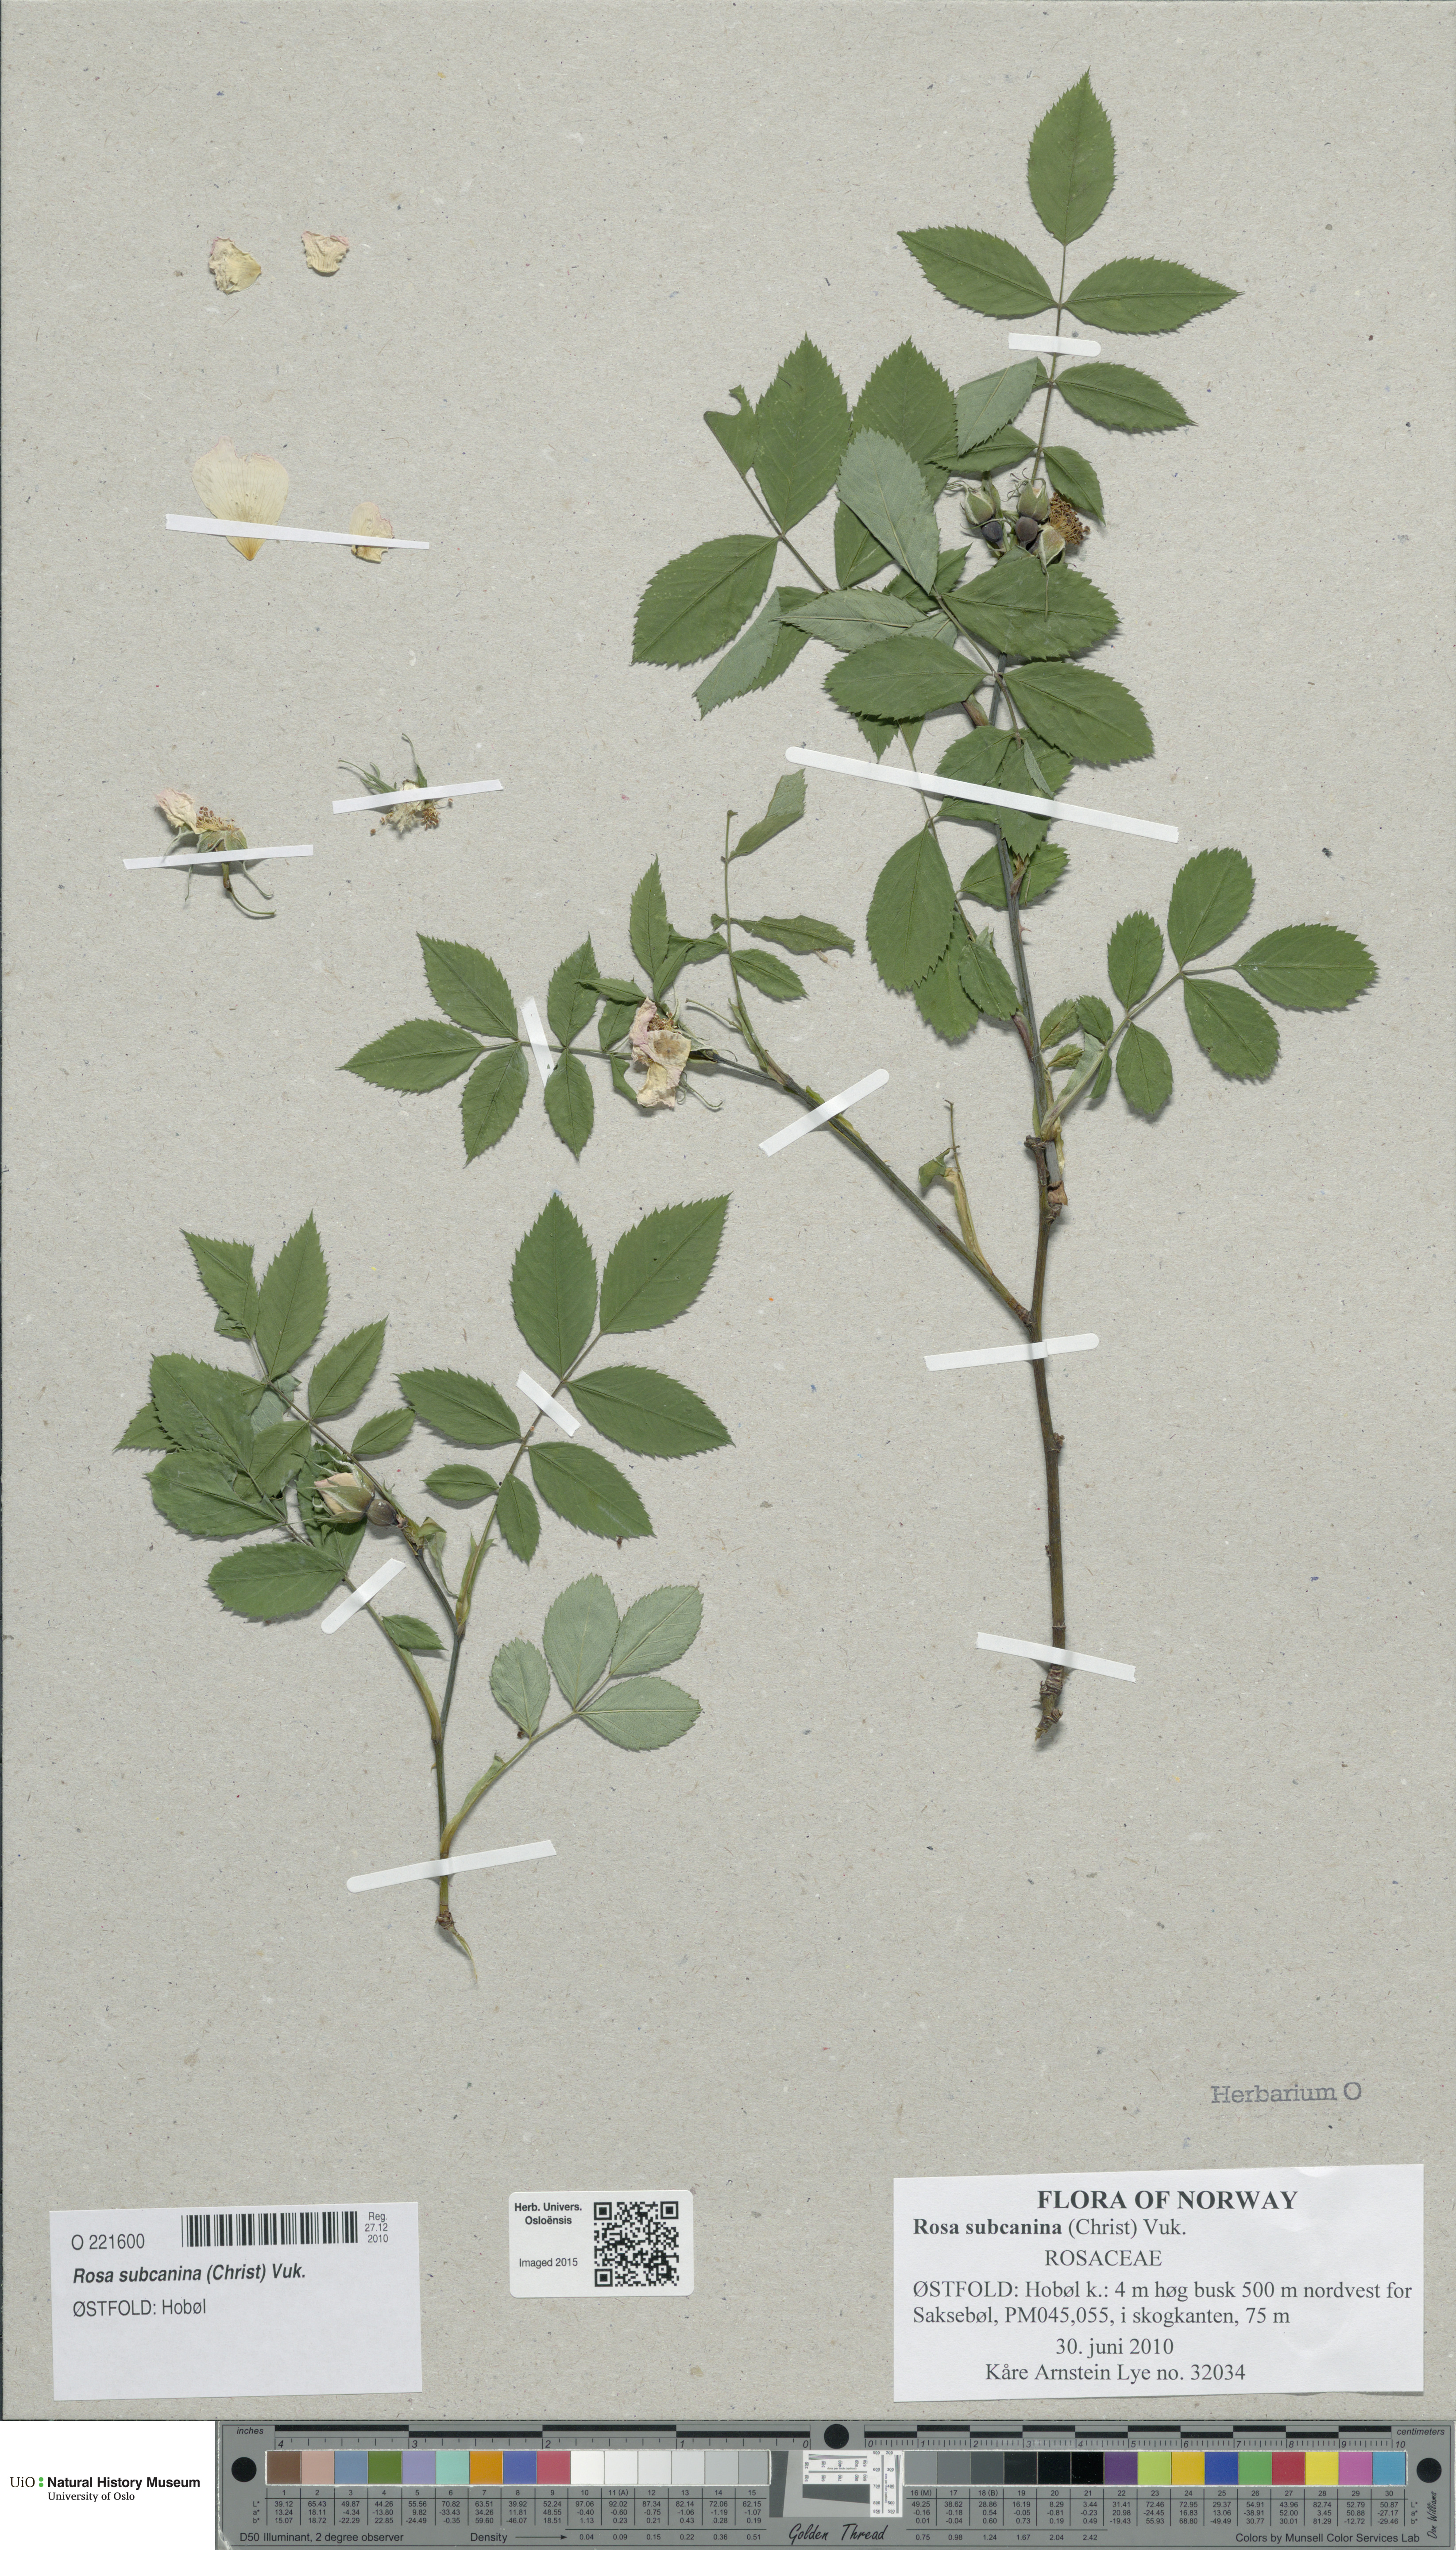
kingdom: Plantae
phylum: Tracheophyta
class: Magnoliopsida
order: Rosales
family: Rosaceae
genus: Rosa
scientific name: Rosa subcanina
